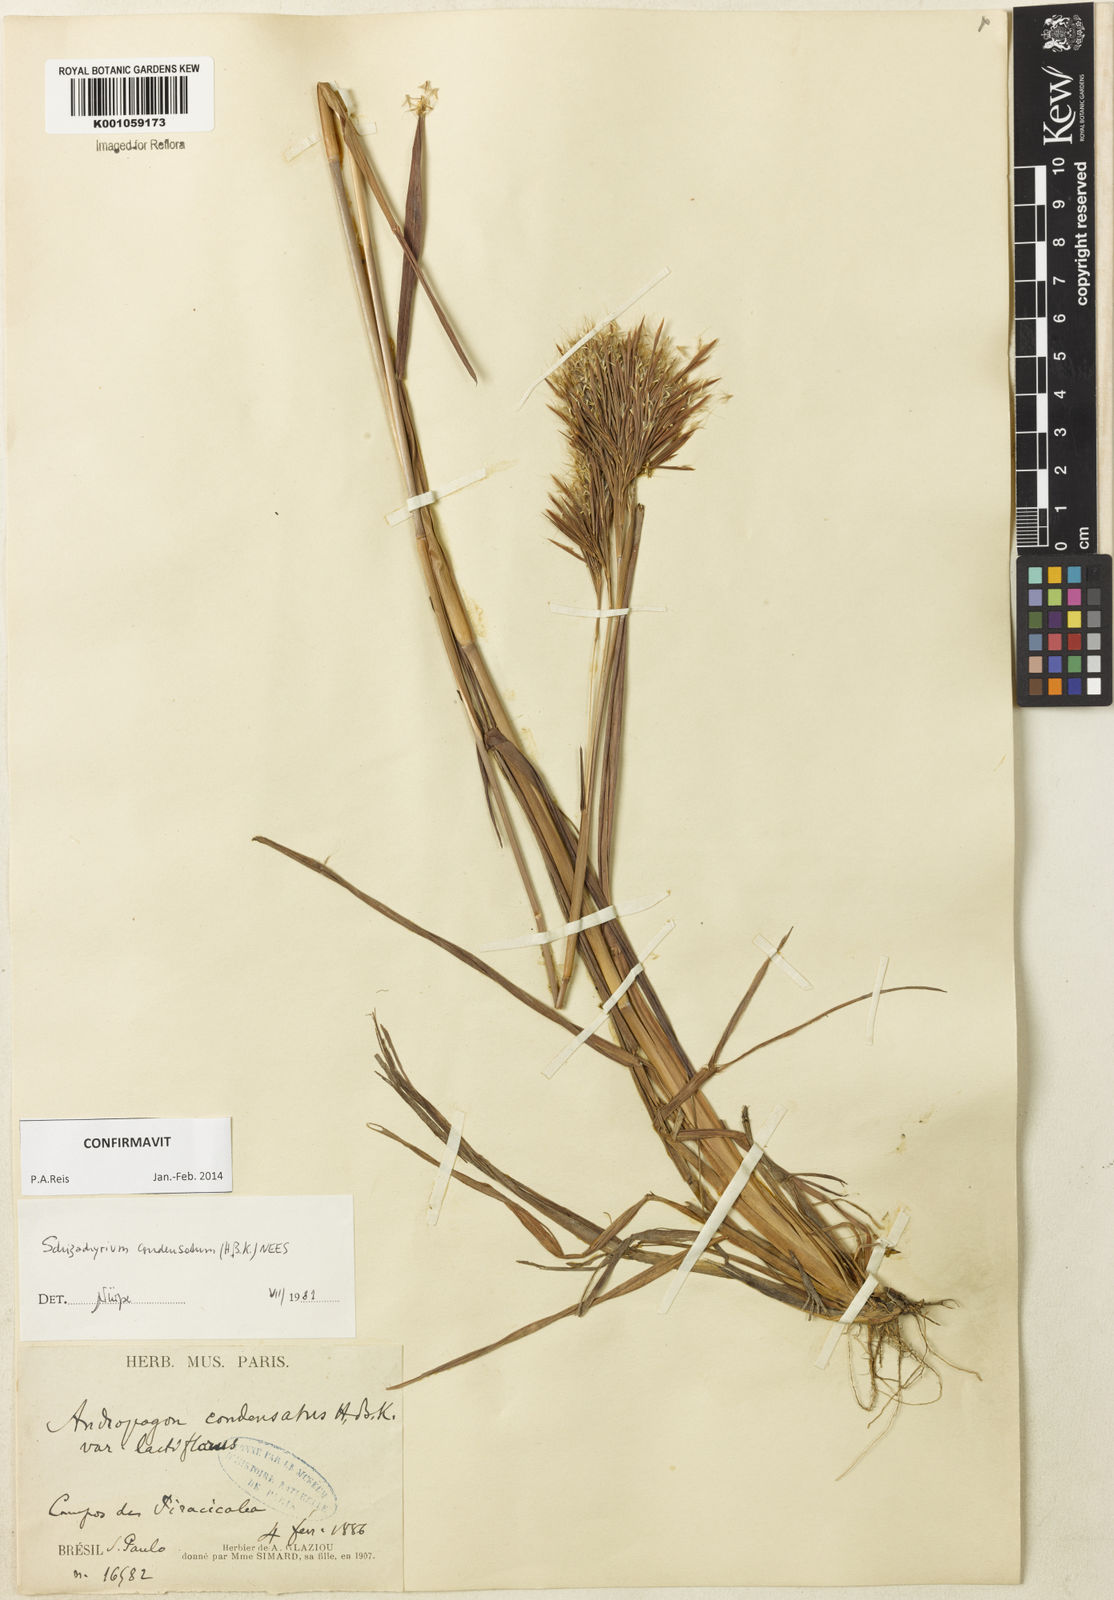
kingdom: Plantae
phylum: Tracheophyta
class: Liliopsida
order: Poales
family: Poaceae
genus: Schizachyrium
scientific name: Schizachyrium condensatum
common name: Bush beardgrass
